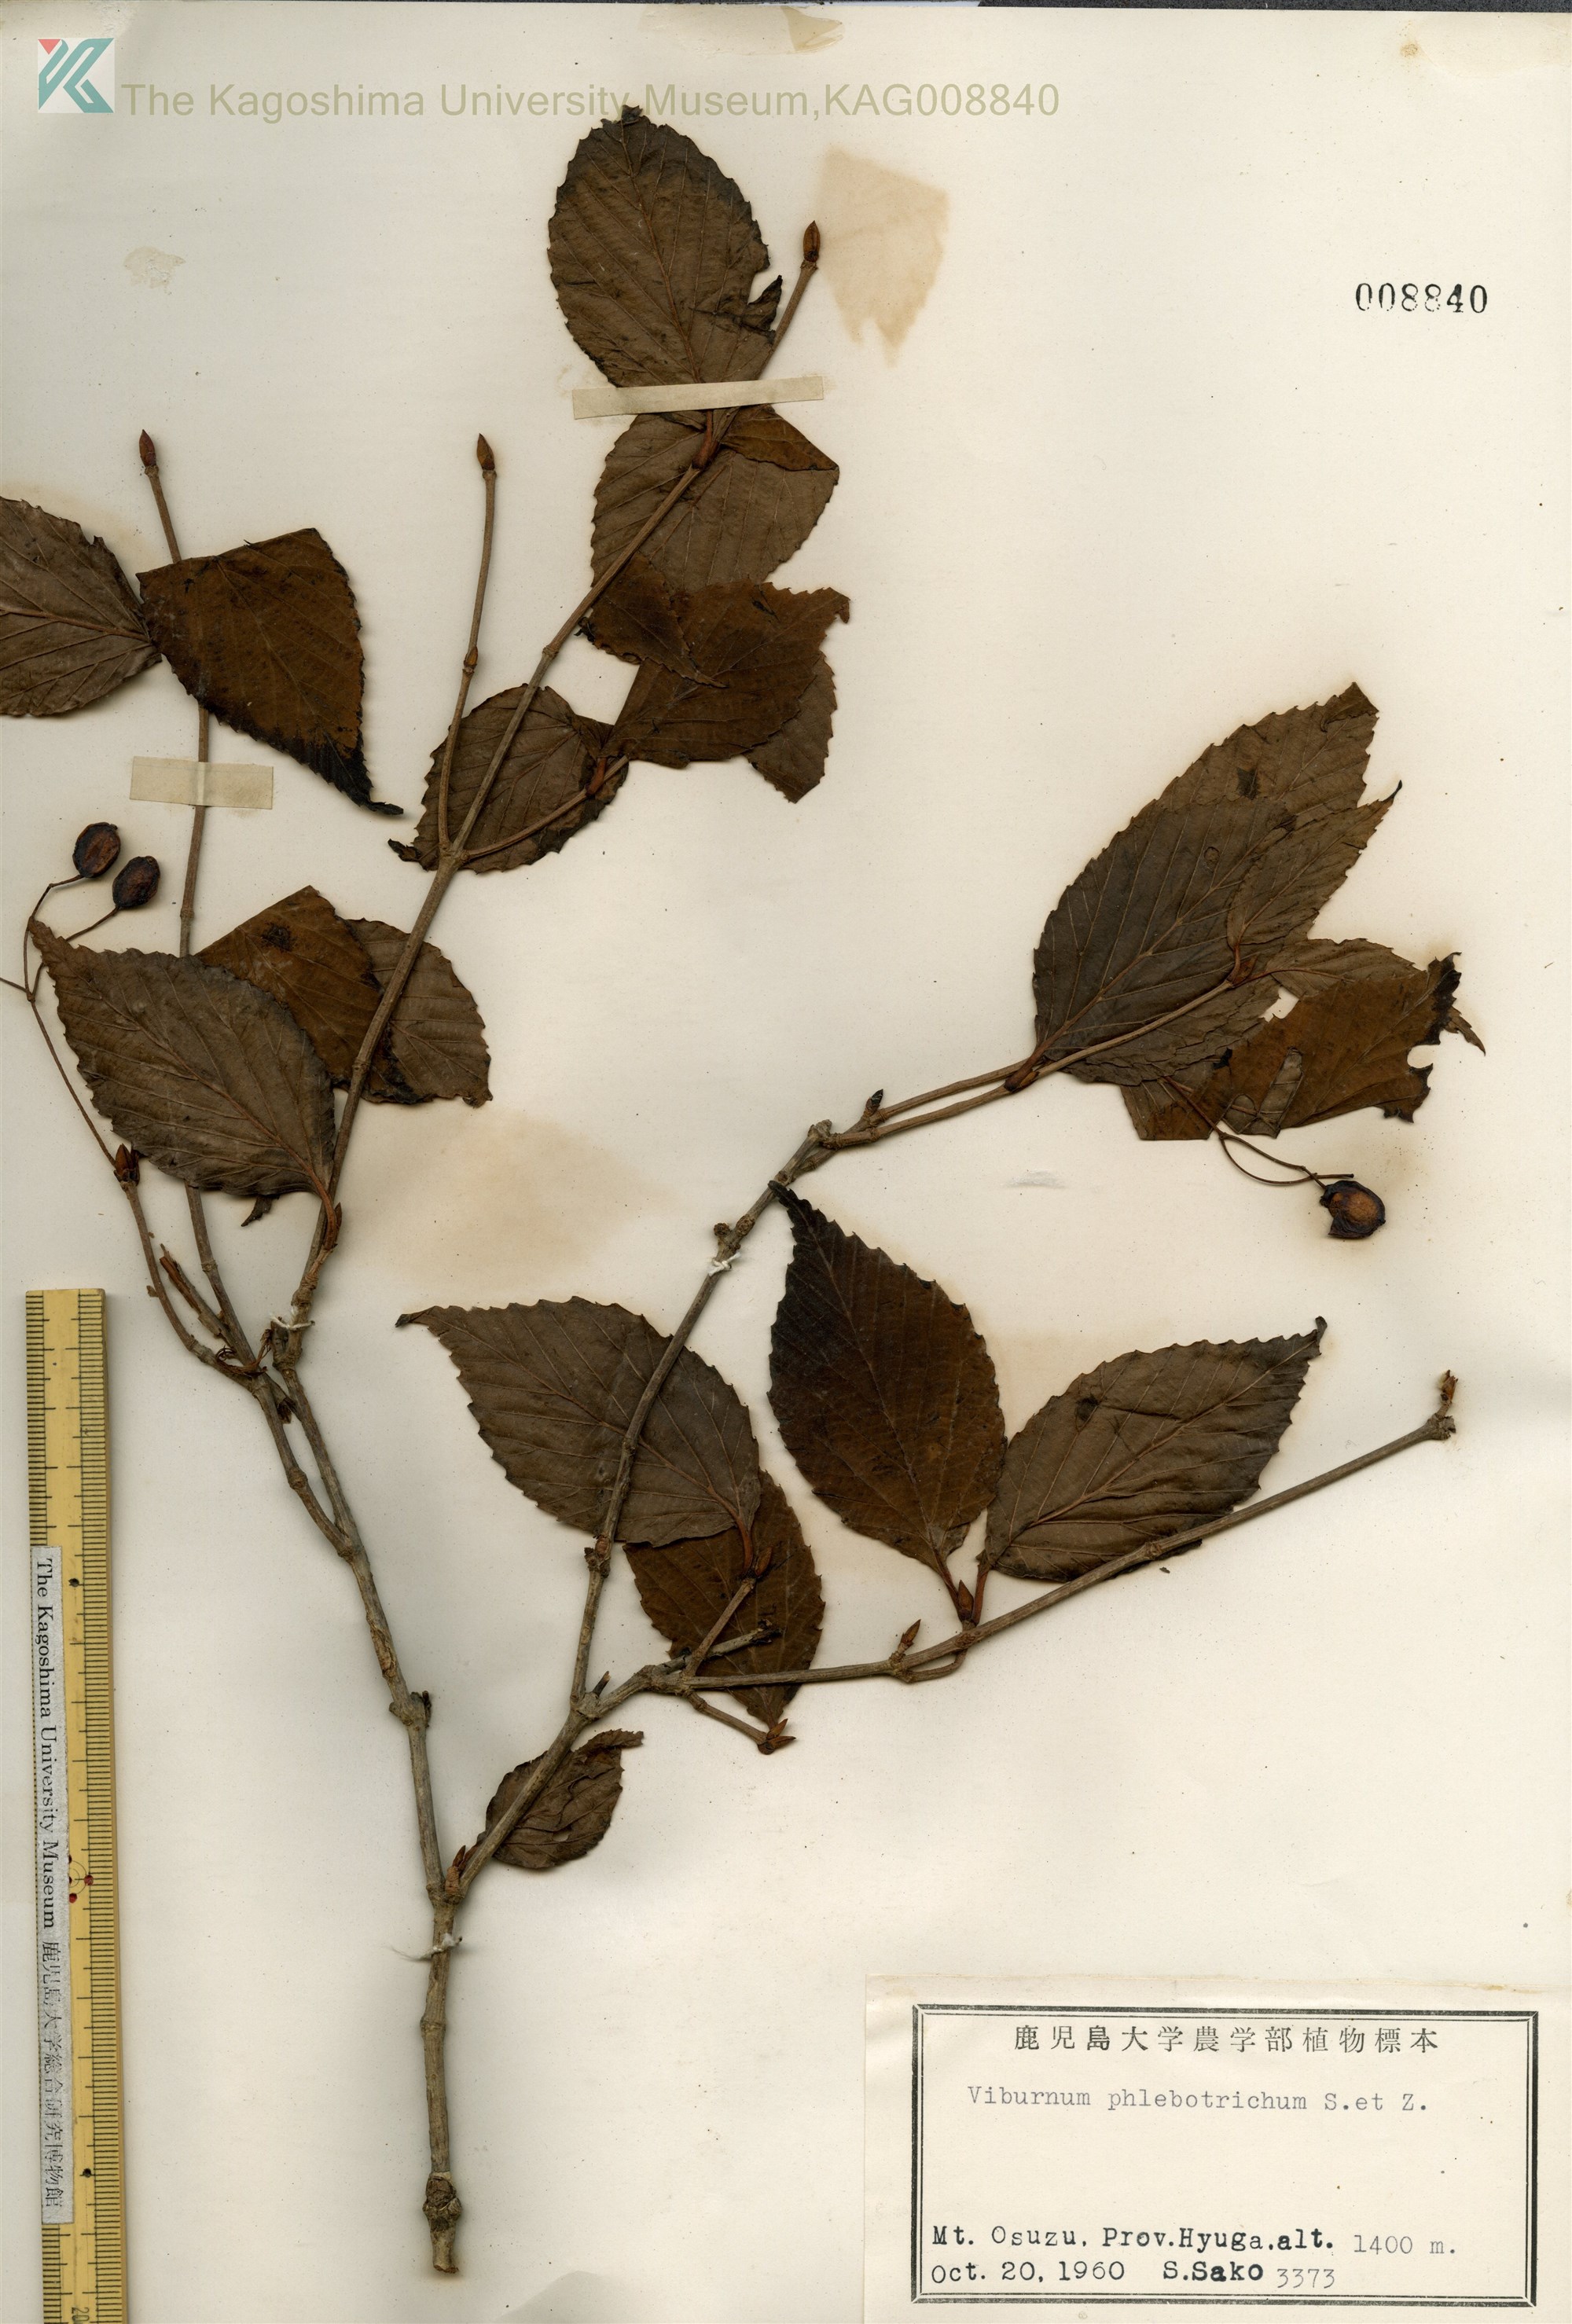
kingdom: Plantae
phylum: Tracheophyta
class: Magnoliopsida
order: Dipsacales
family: Viburnaceae
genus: Viburnum
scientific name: Viburnum phlebotrichum
